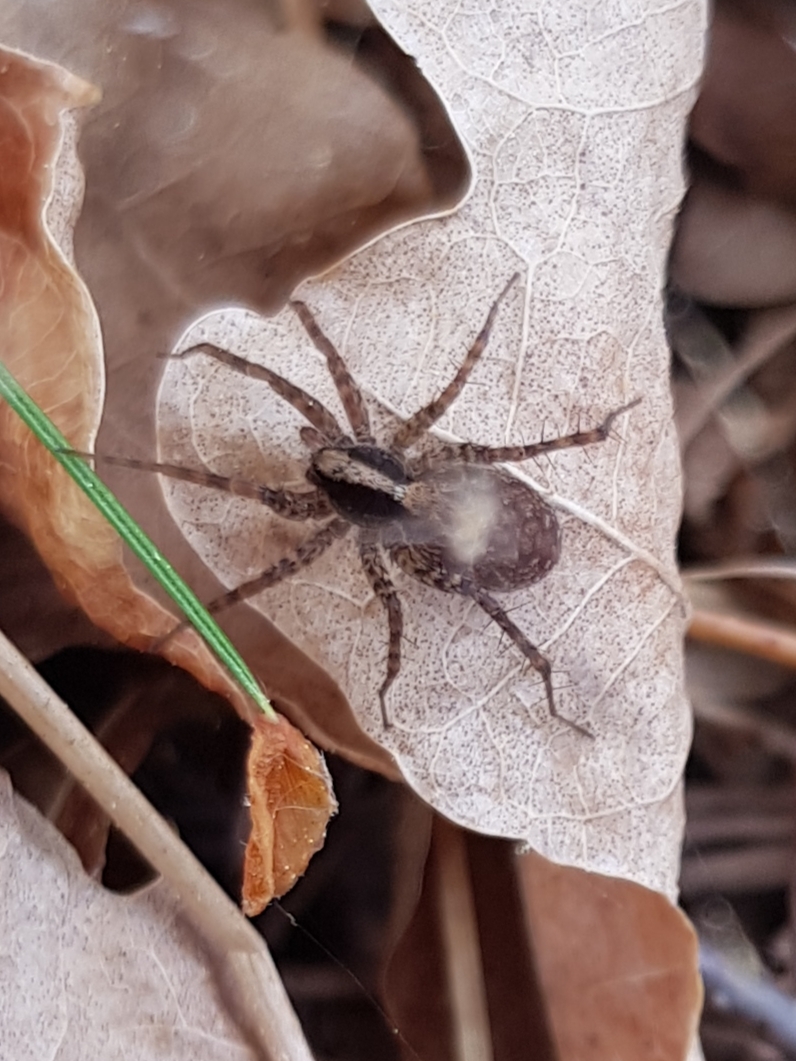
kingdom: Animalia
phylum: Arthropoda
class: Arachnida
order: Araneae
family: Lycosidae
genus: Pardosa
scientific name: Pardosa
